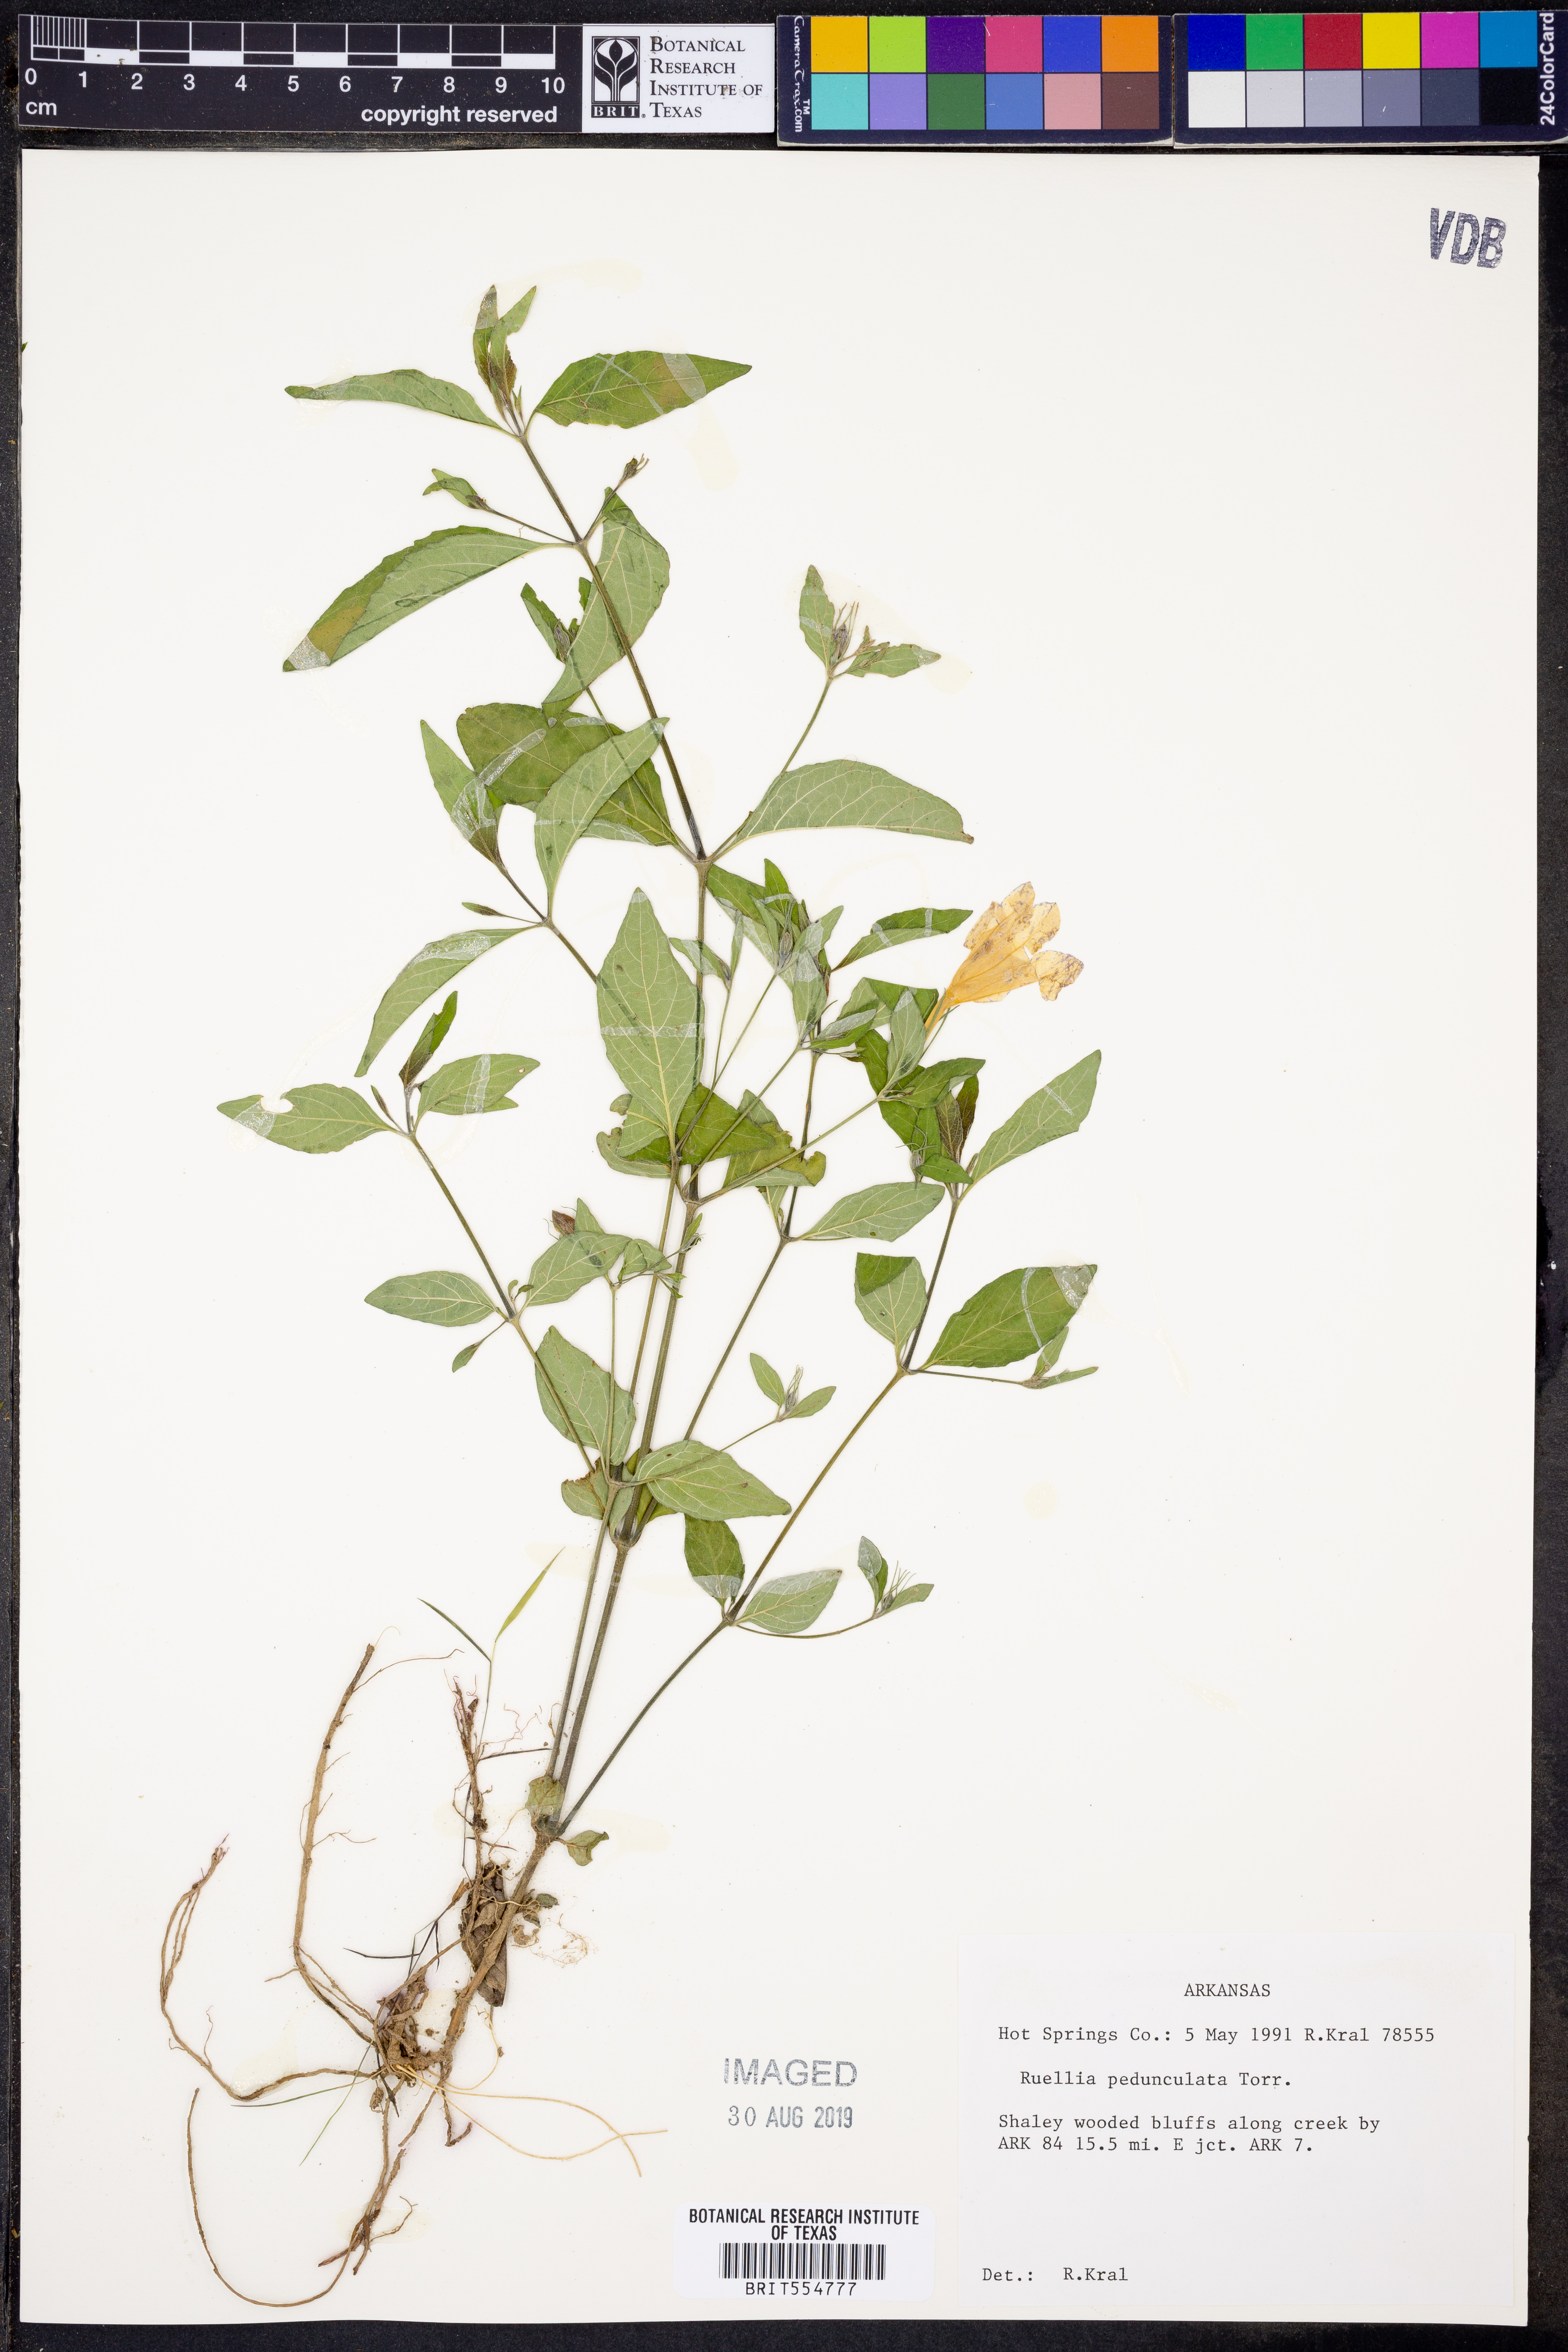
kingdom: Plantae
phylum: Tracheophyta
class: Magnoliopsida
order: Lamiales
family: Acanthaceae
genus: Ruellia
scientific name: Ruellia pedunculata
